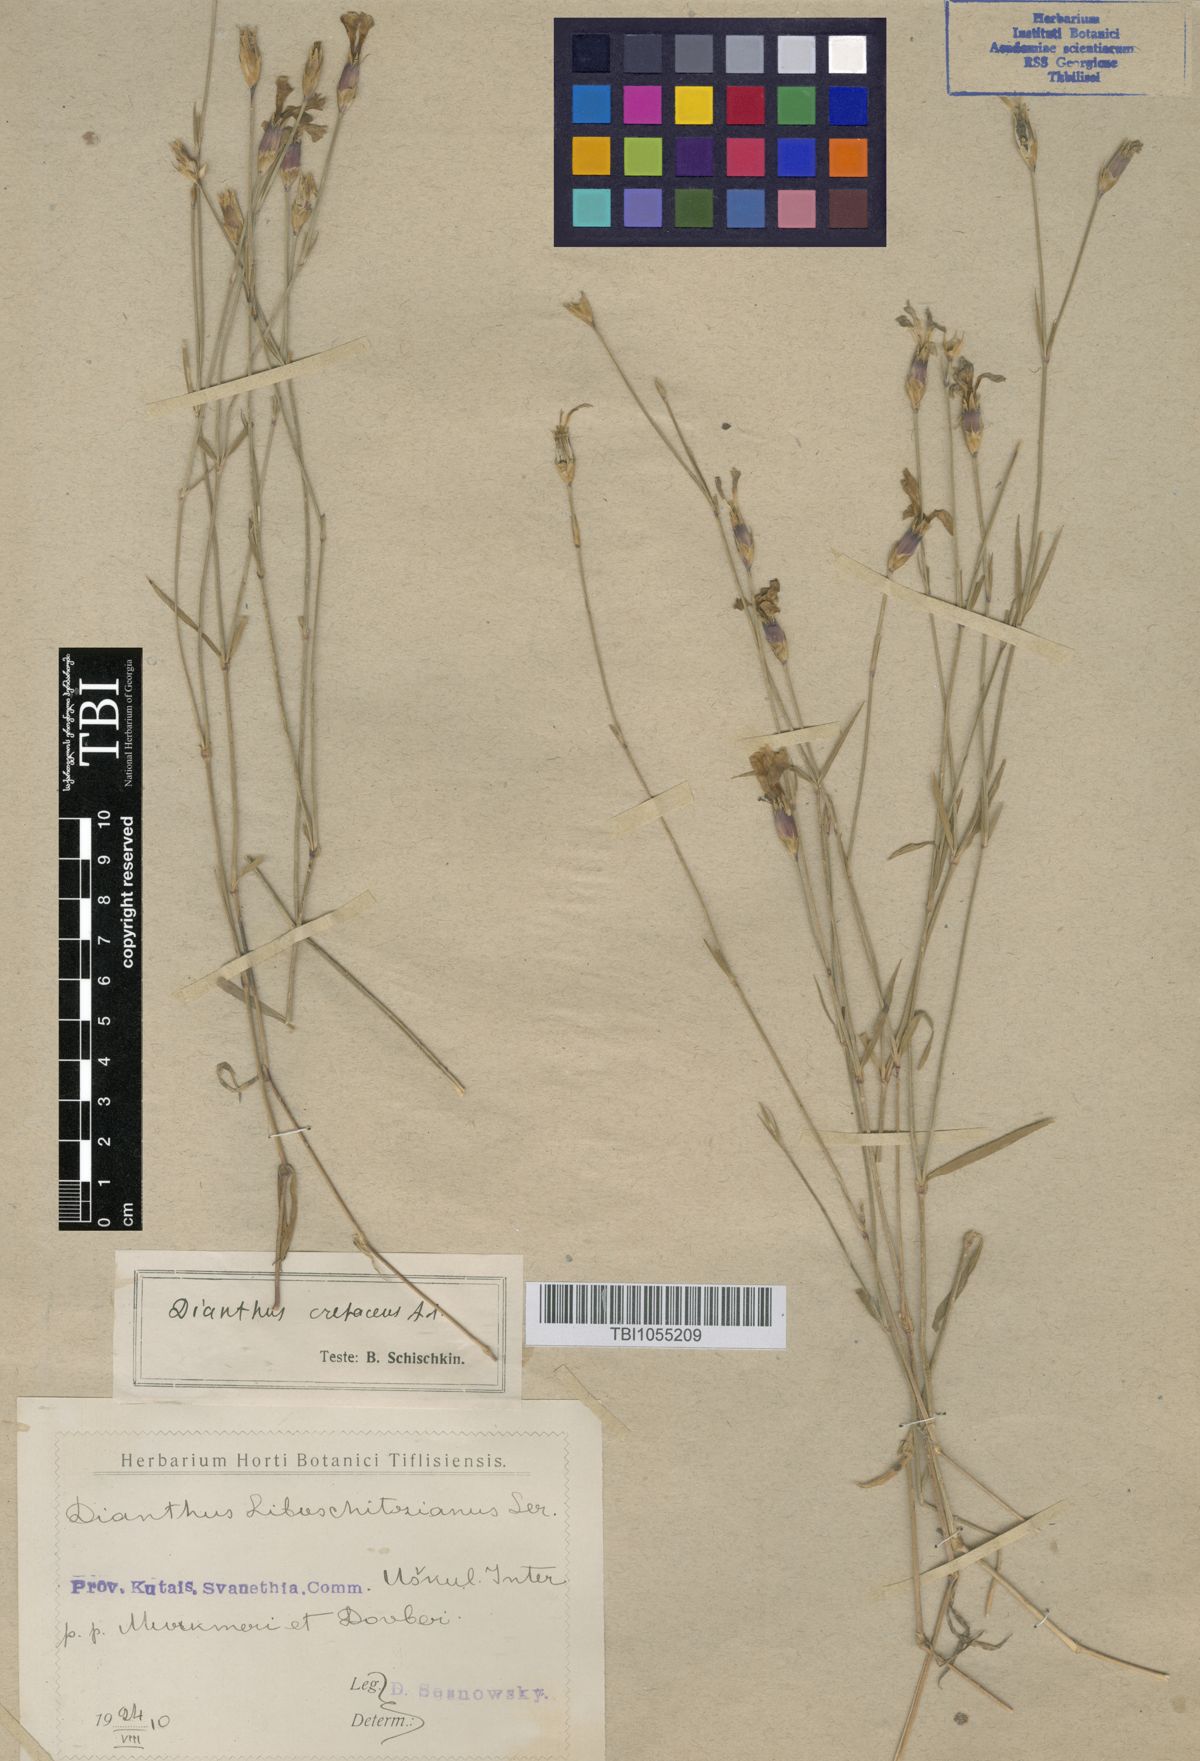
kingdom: Plantae
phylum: Tracheophyta
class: Magnoliopsida
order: Caryophyllales
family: Caryophyllaceae
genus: Dianthus
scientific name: Dianthus cretaceus
